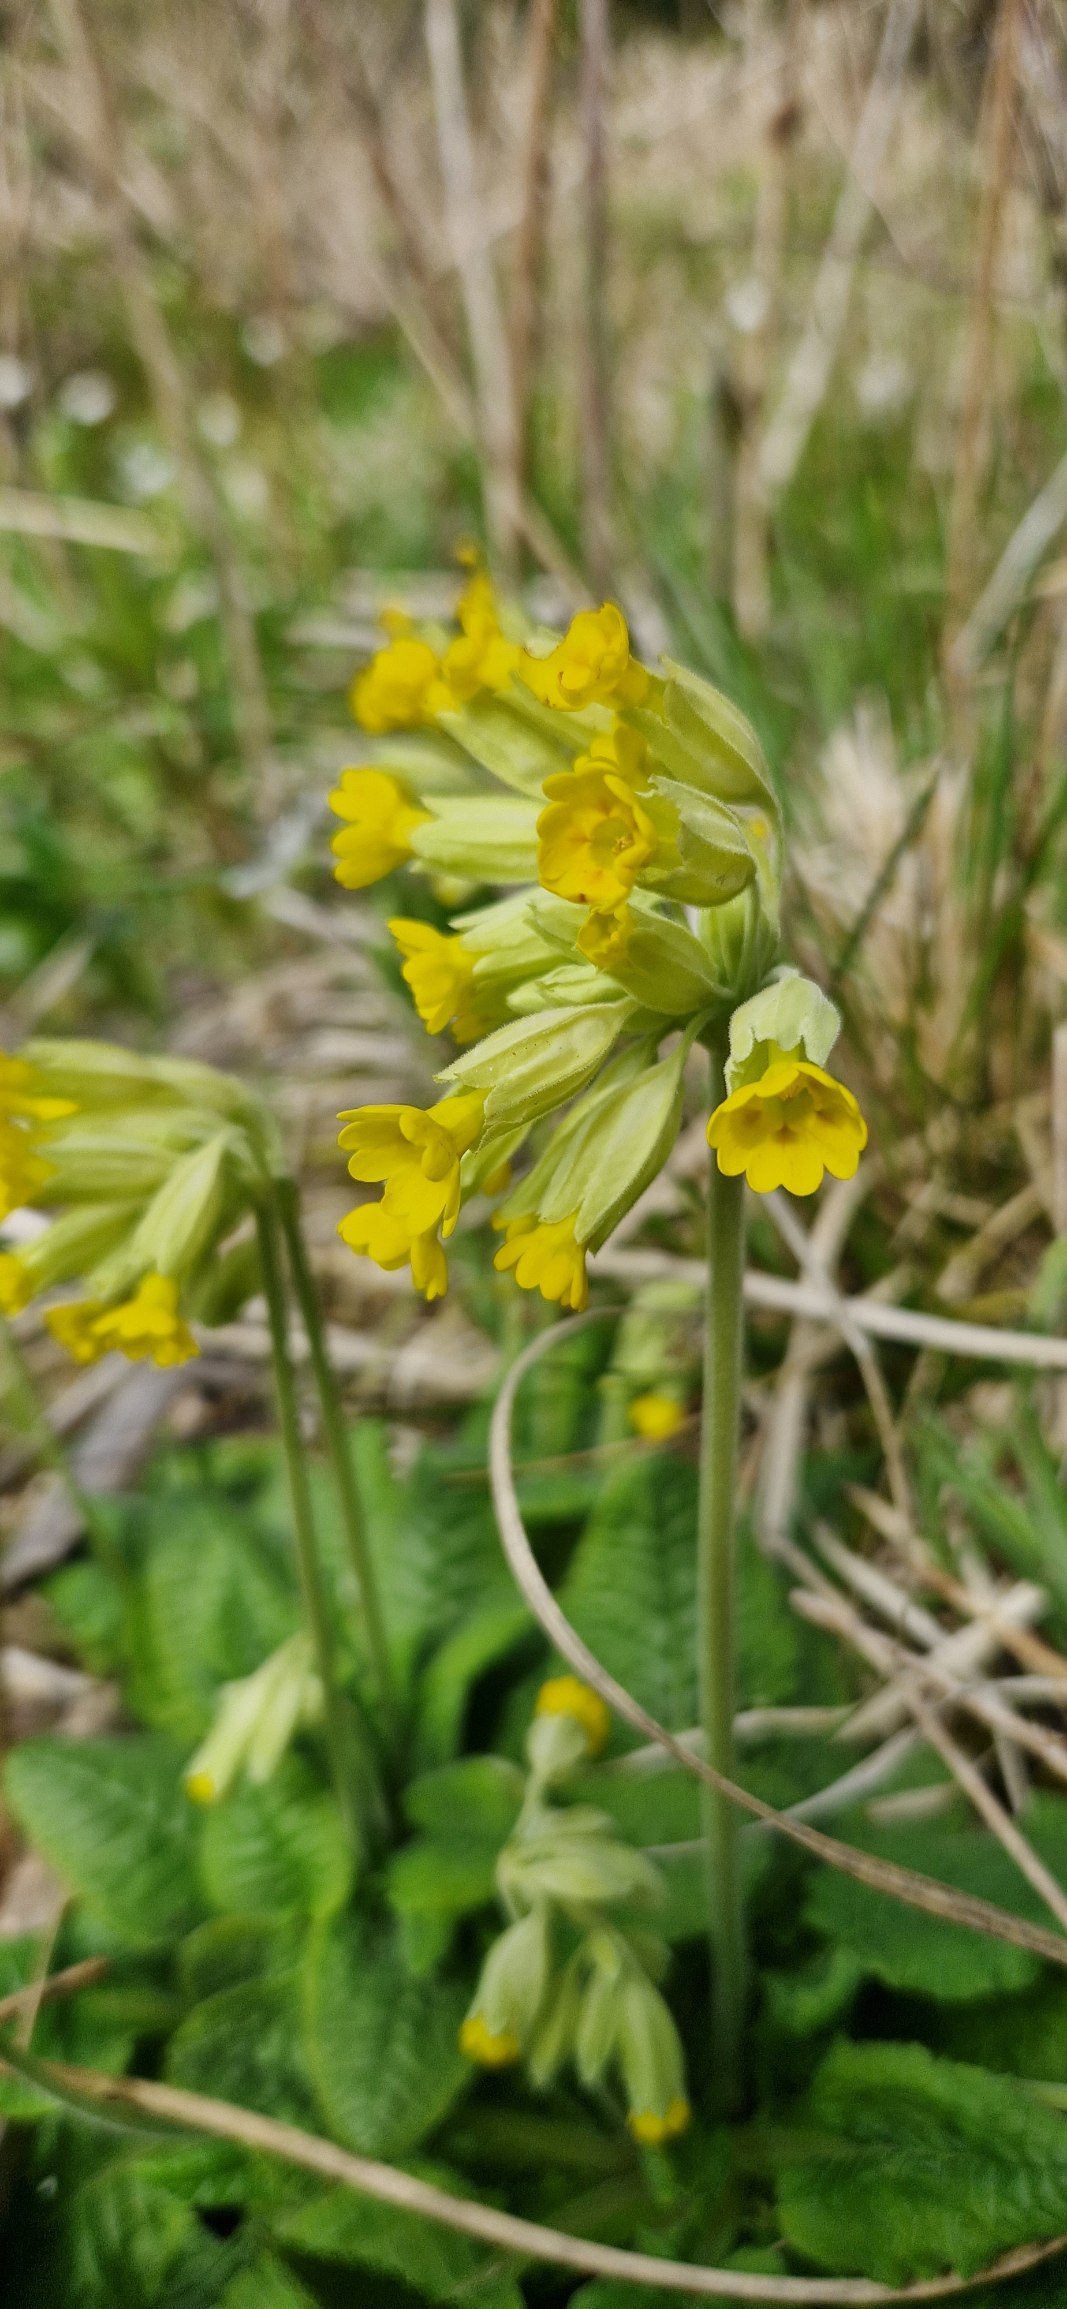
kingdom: Plantae
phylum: Tracheophyta
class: Magnoliopsida
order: Ericales
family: Primulaceae
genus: Primula
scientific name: Primula veris
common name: Hulkravet kodriver
